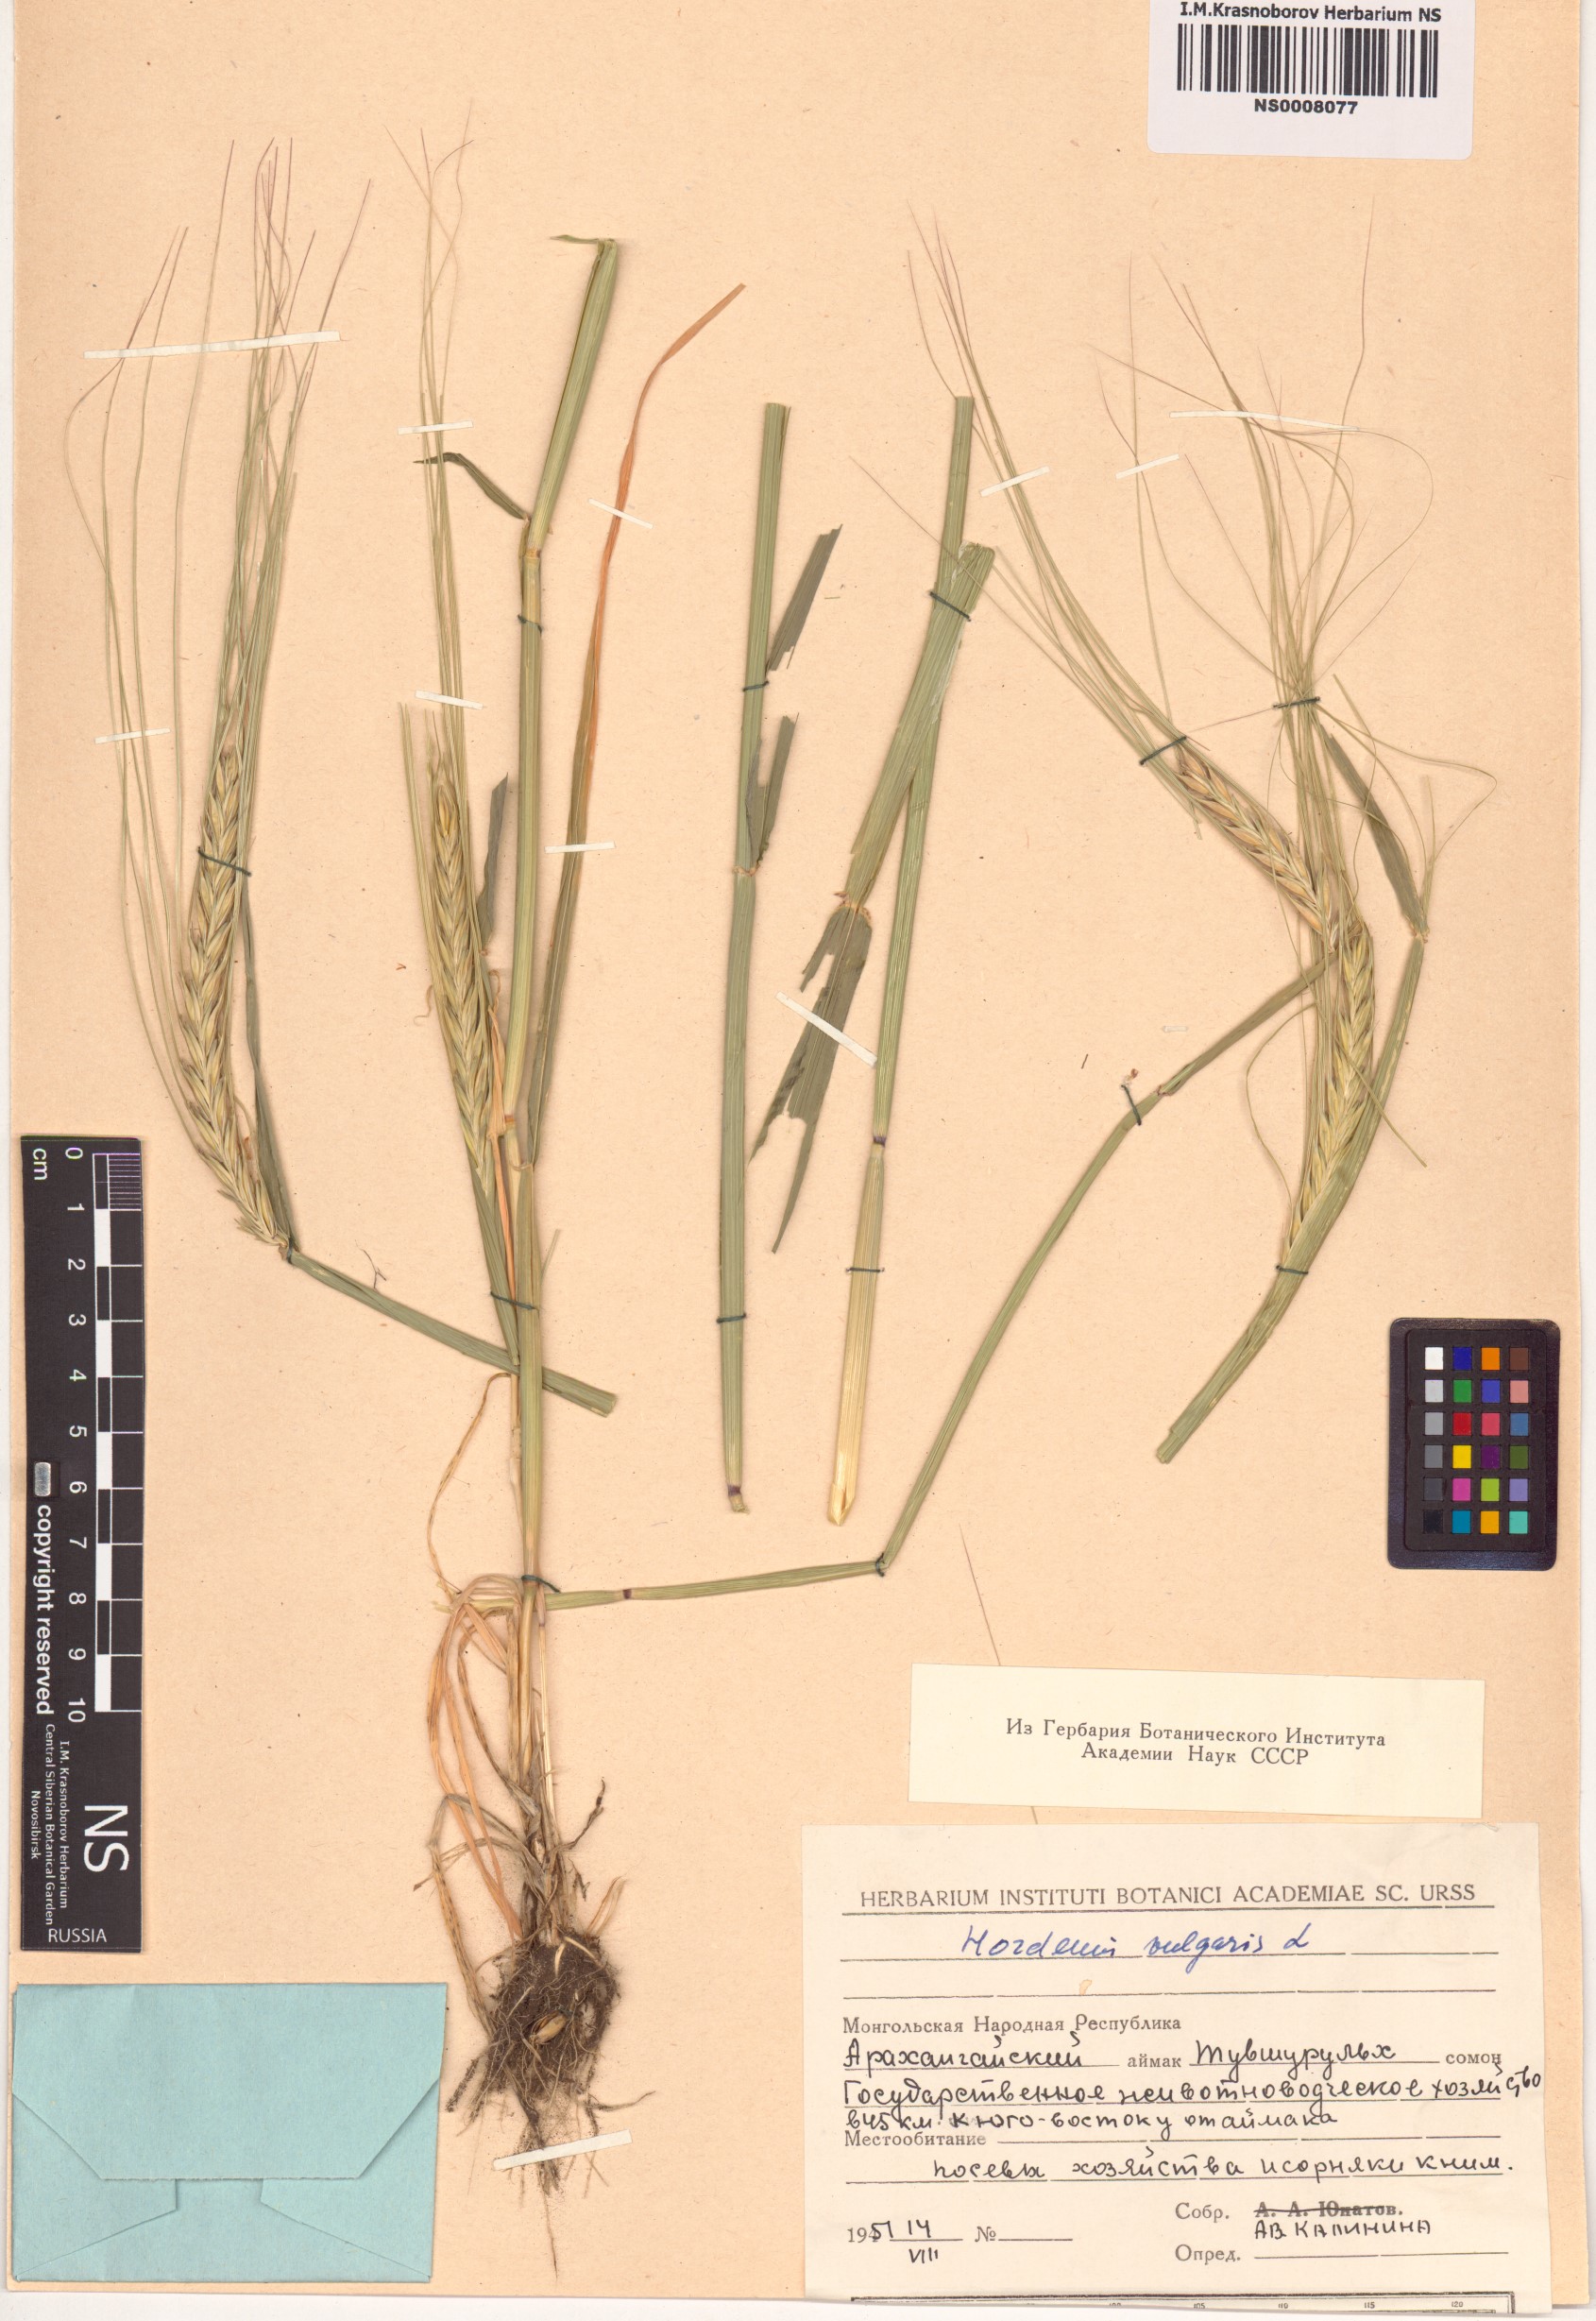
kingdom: Plantae
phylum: Tracheophyta
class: Liliopsida
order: Poales
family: Poaceae
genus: Hordeum
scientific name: Hordeum vulgare
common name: Common barley
